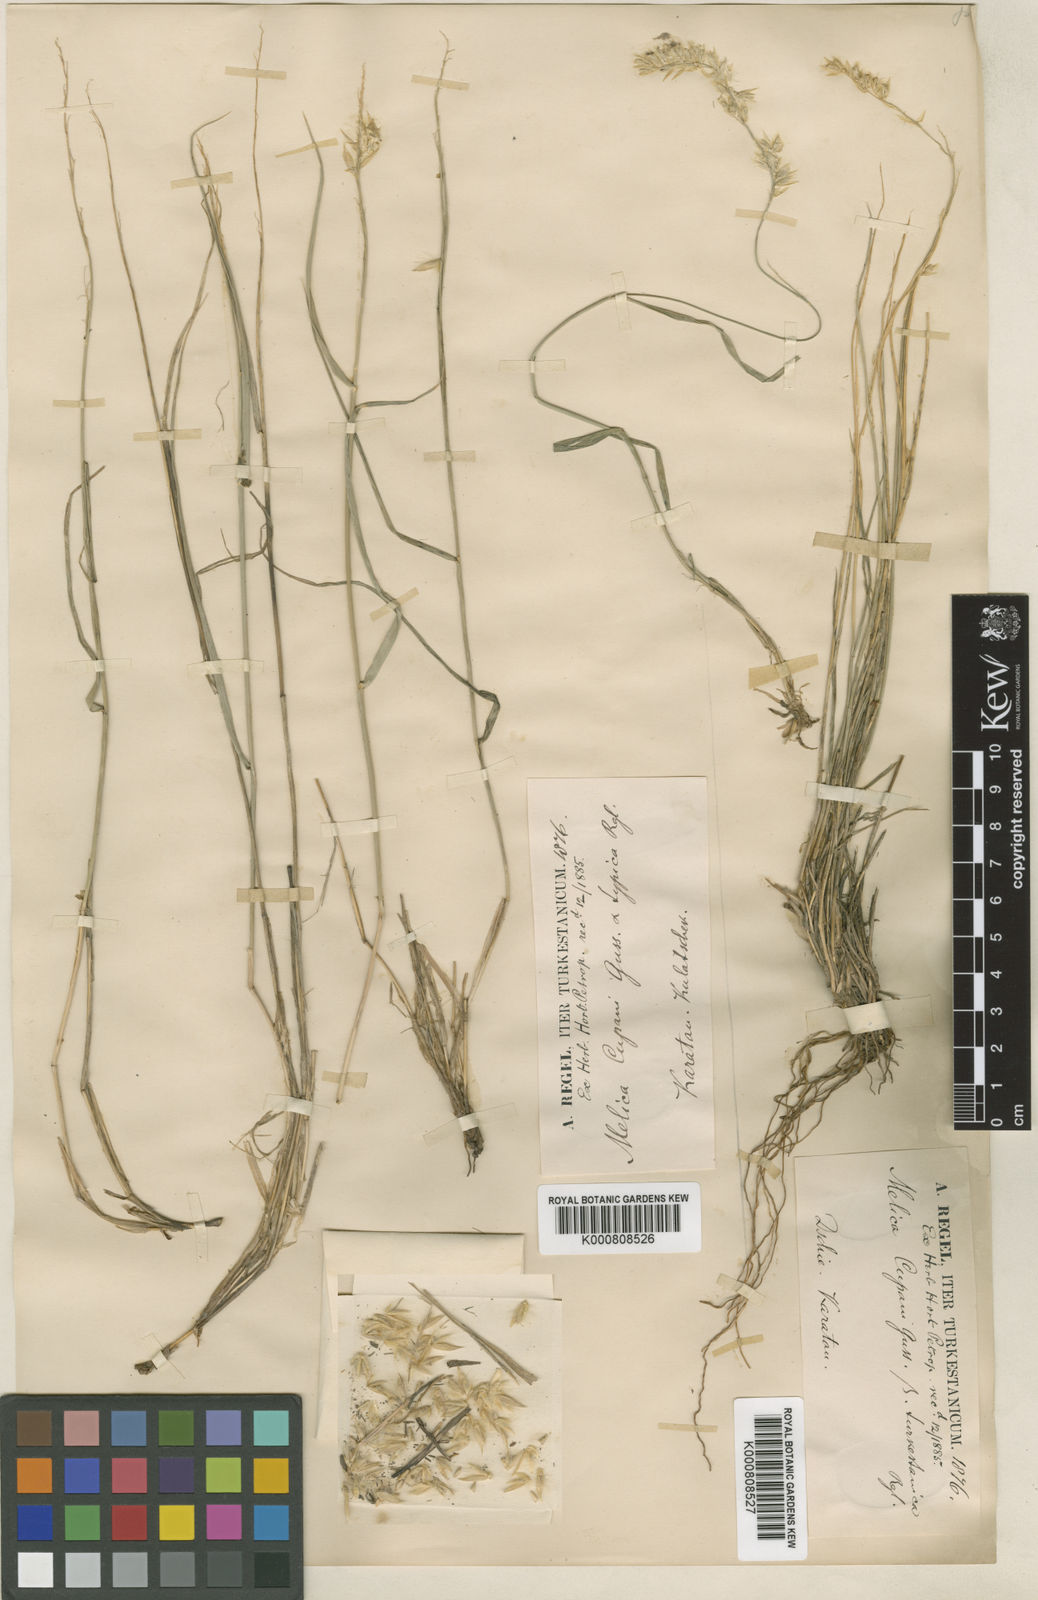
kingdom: Plantae
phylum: Tracheophyta
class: Liliopsida
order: Poales
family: Poaceae
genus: Melica
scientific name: Melica cupani
